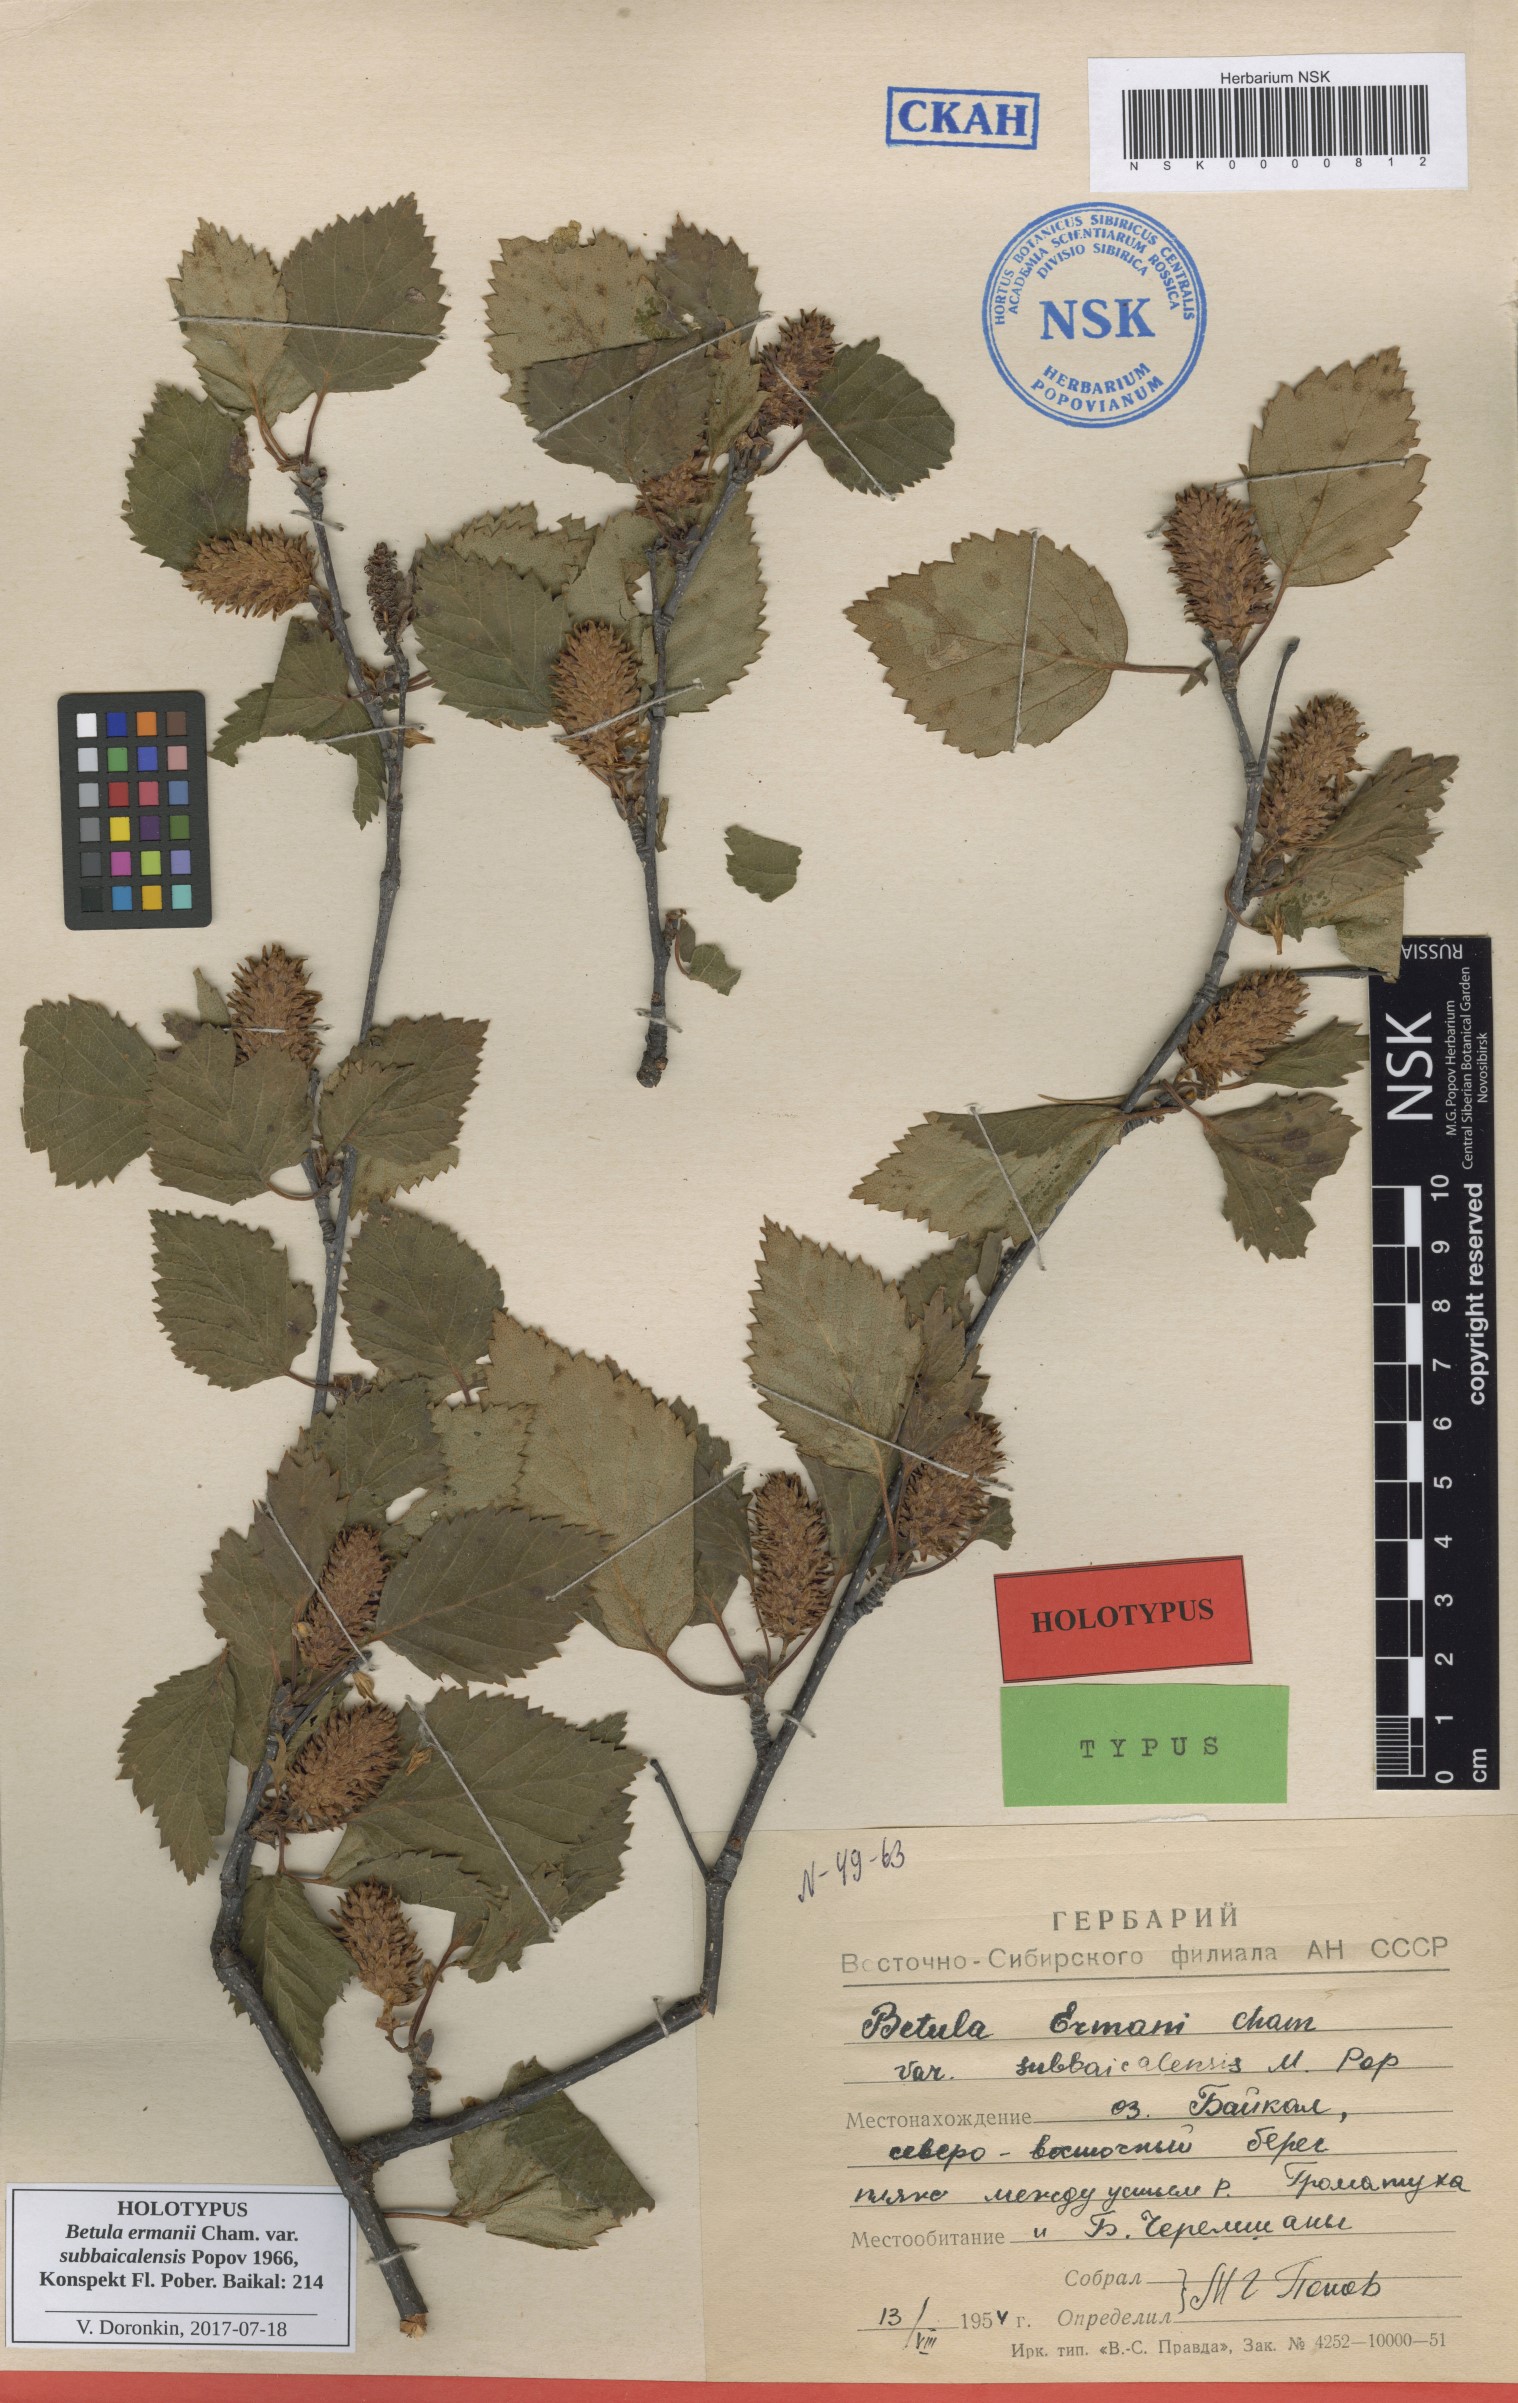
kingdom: Plantae
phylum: Tracheophyta
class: Magnoliopsida
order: Fagales
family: Betulaceae
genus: Betula
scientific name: Betula ermanii
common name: Erman's birch
